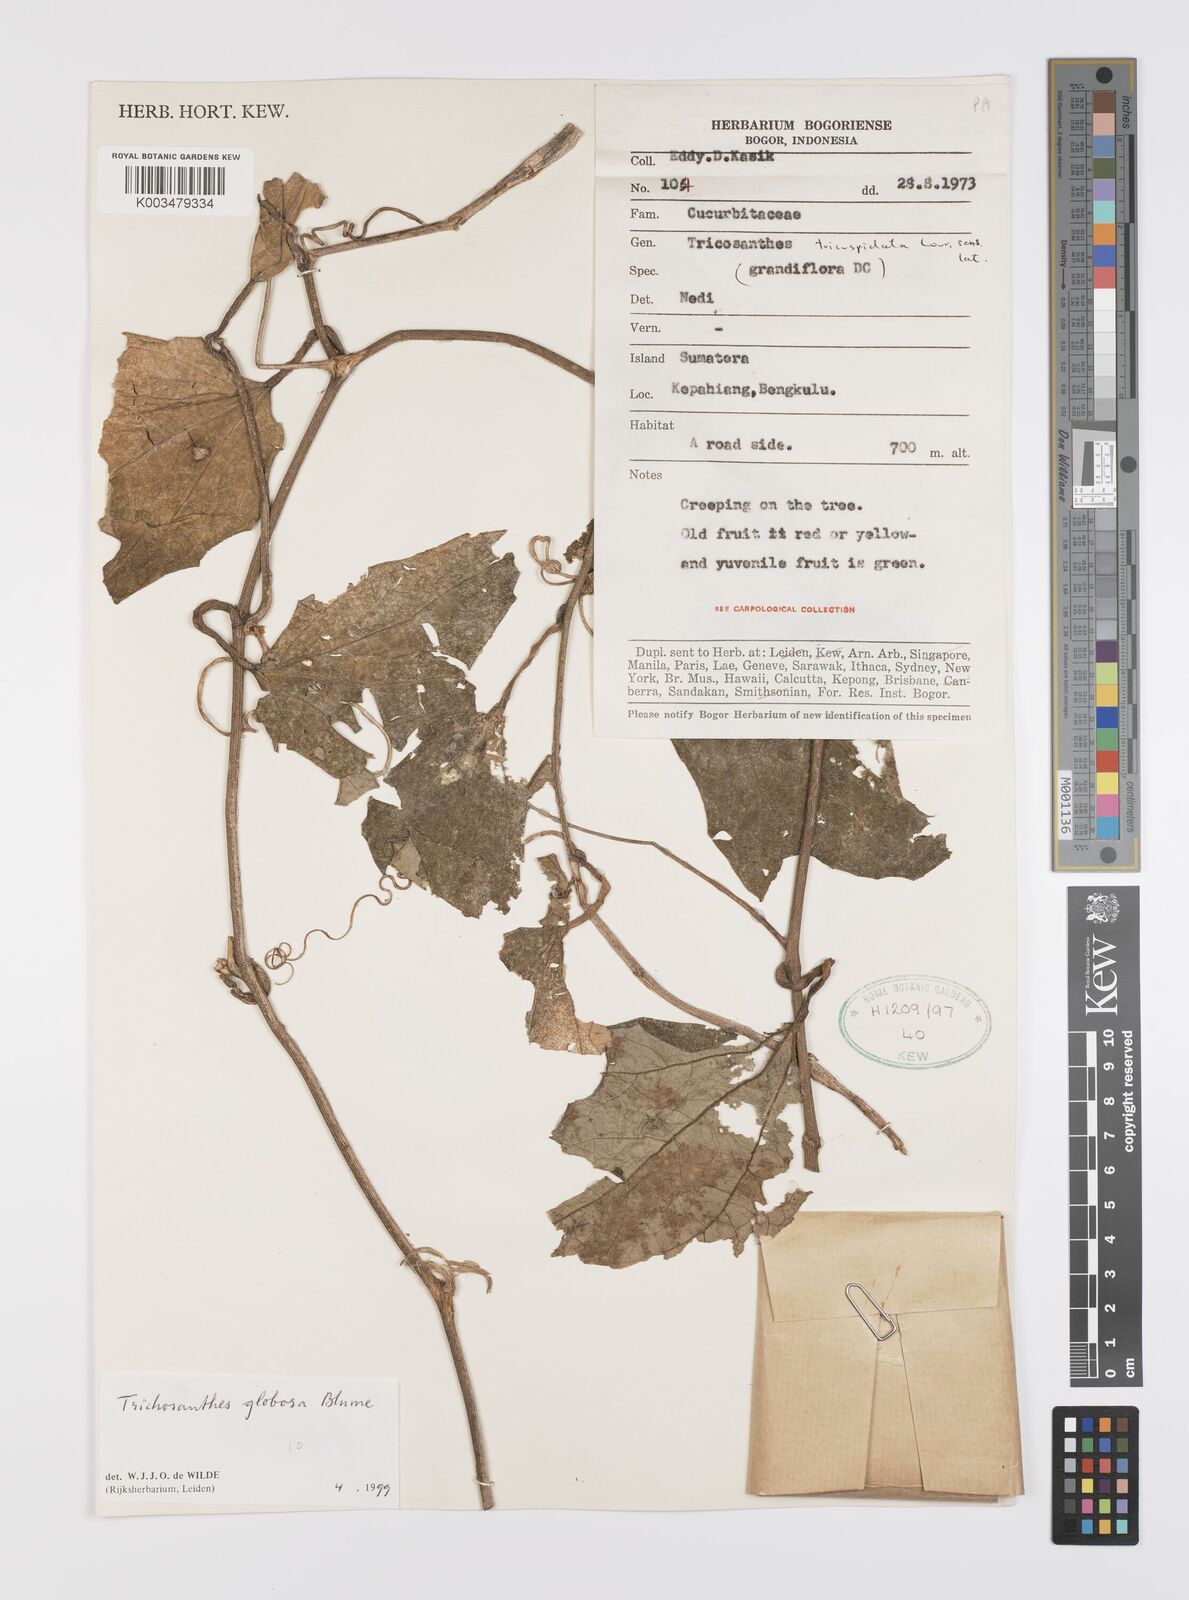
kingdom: Plantae
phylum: Tracheophyta
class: Magnoliopsida
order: Cucurbitales
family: Cucurbitaceae
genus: Trichosanthes
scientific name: Trichosanthes globosa
